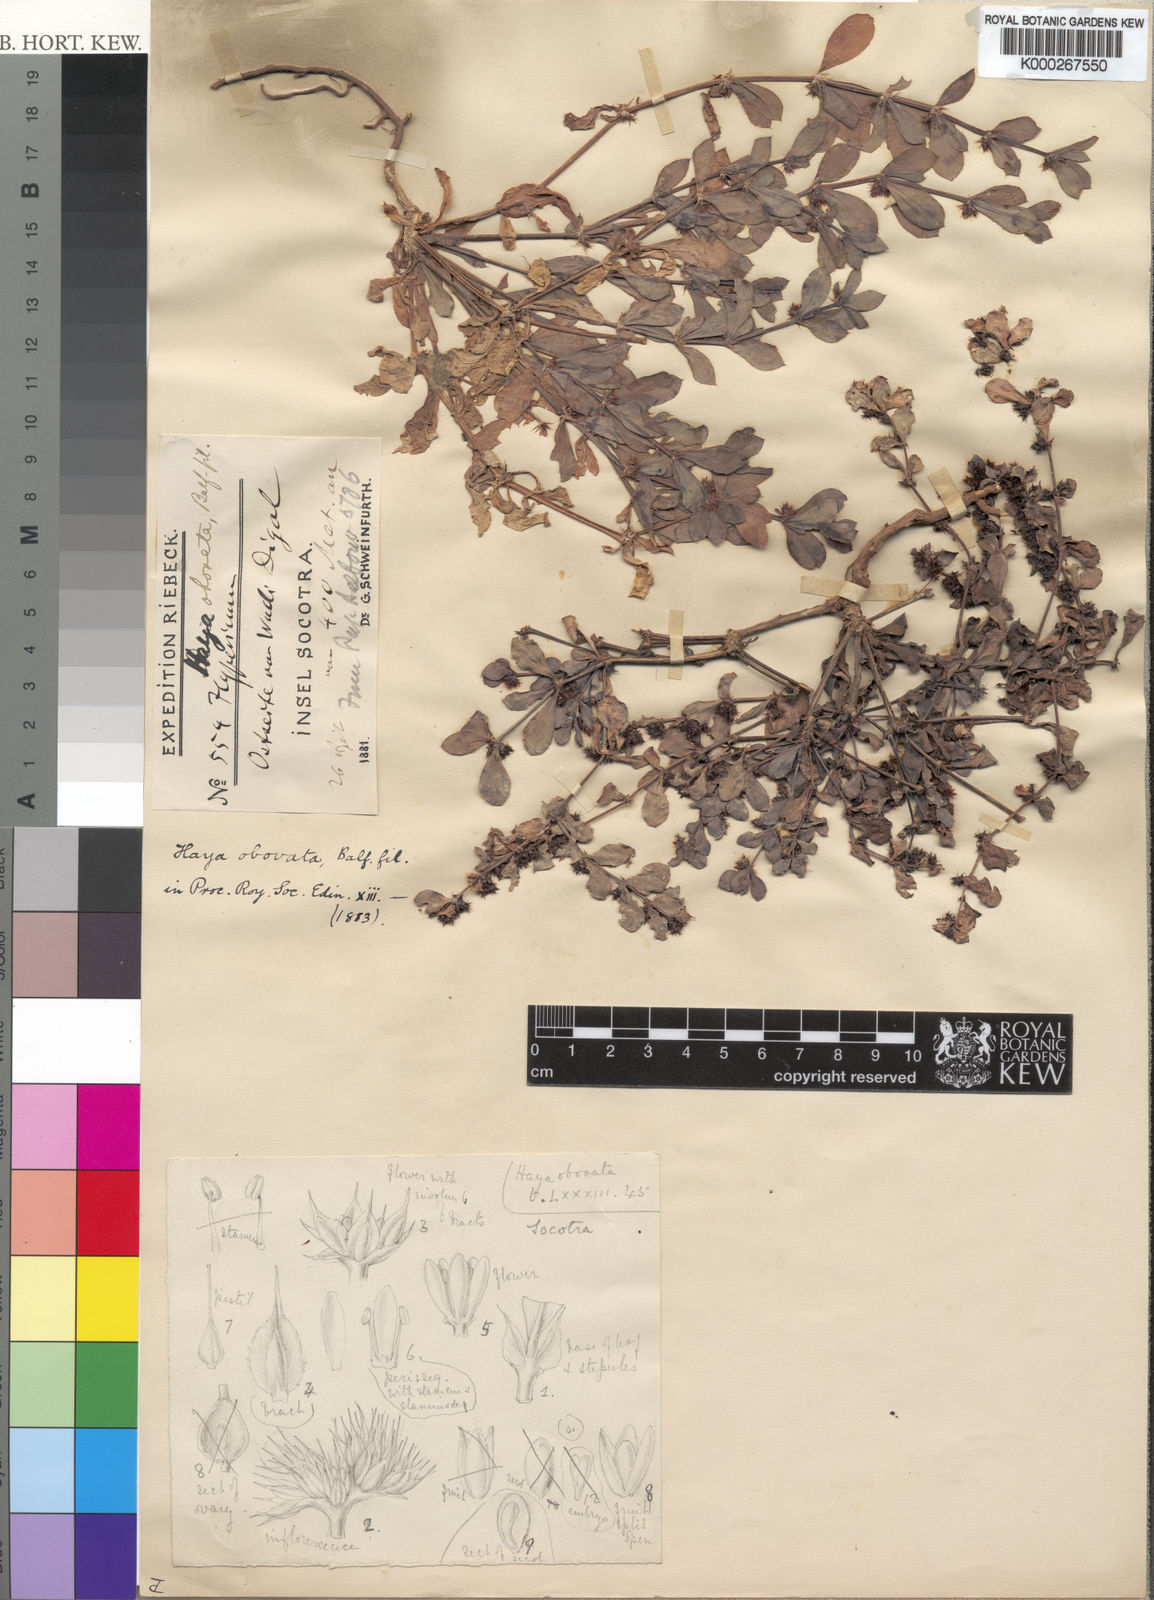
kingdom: Plantae
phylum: Tracheophyta
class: Magnoliopsida
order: Caryophyllales
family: Caryophyllaceae
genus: Haya
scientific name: Haya obovata
